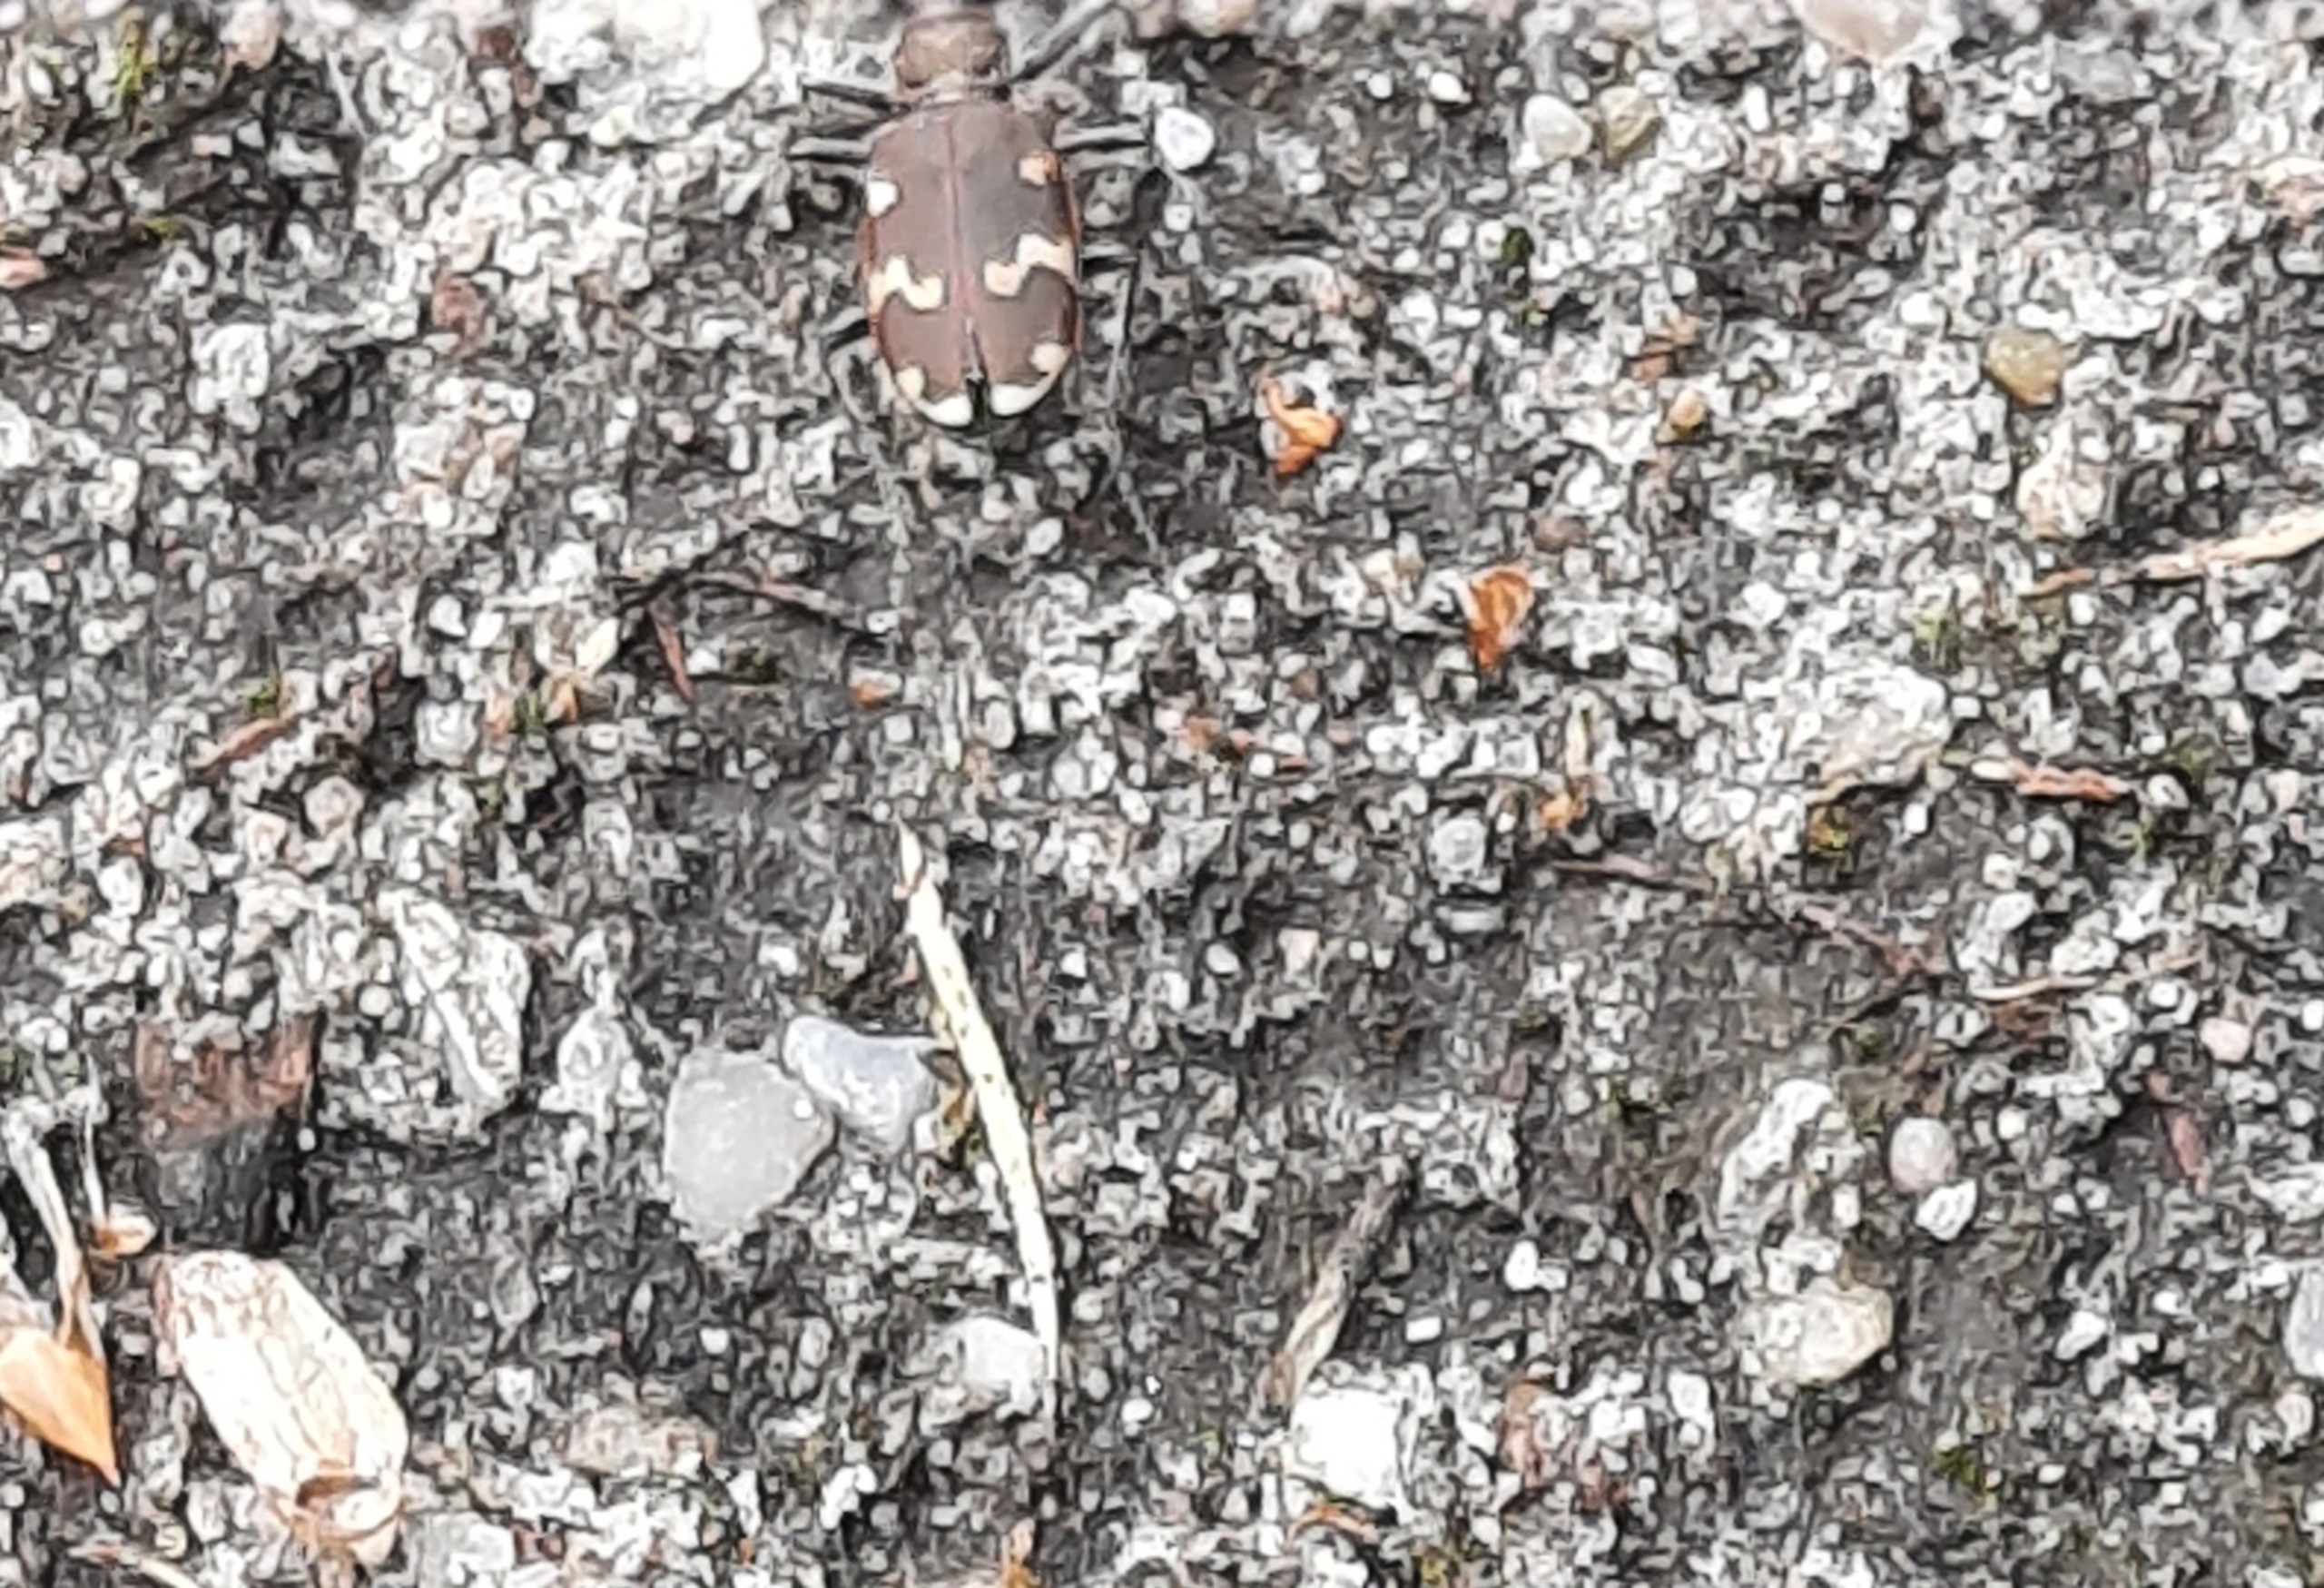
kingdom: Animalia
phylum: Arthropoda
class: Insecta
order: Coleoptera
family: Carabidae
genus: Cicindela
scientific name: Cicindela hybrida
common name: Brun sandspringer
